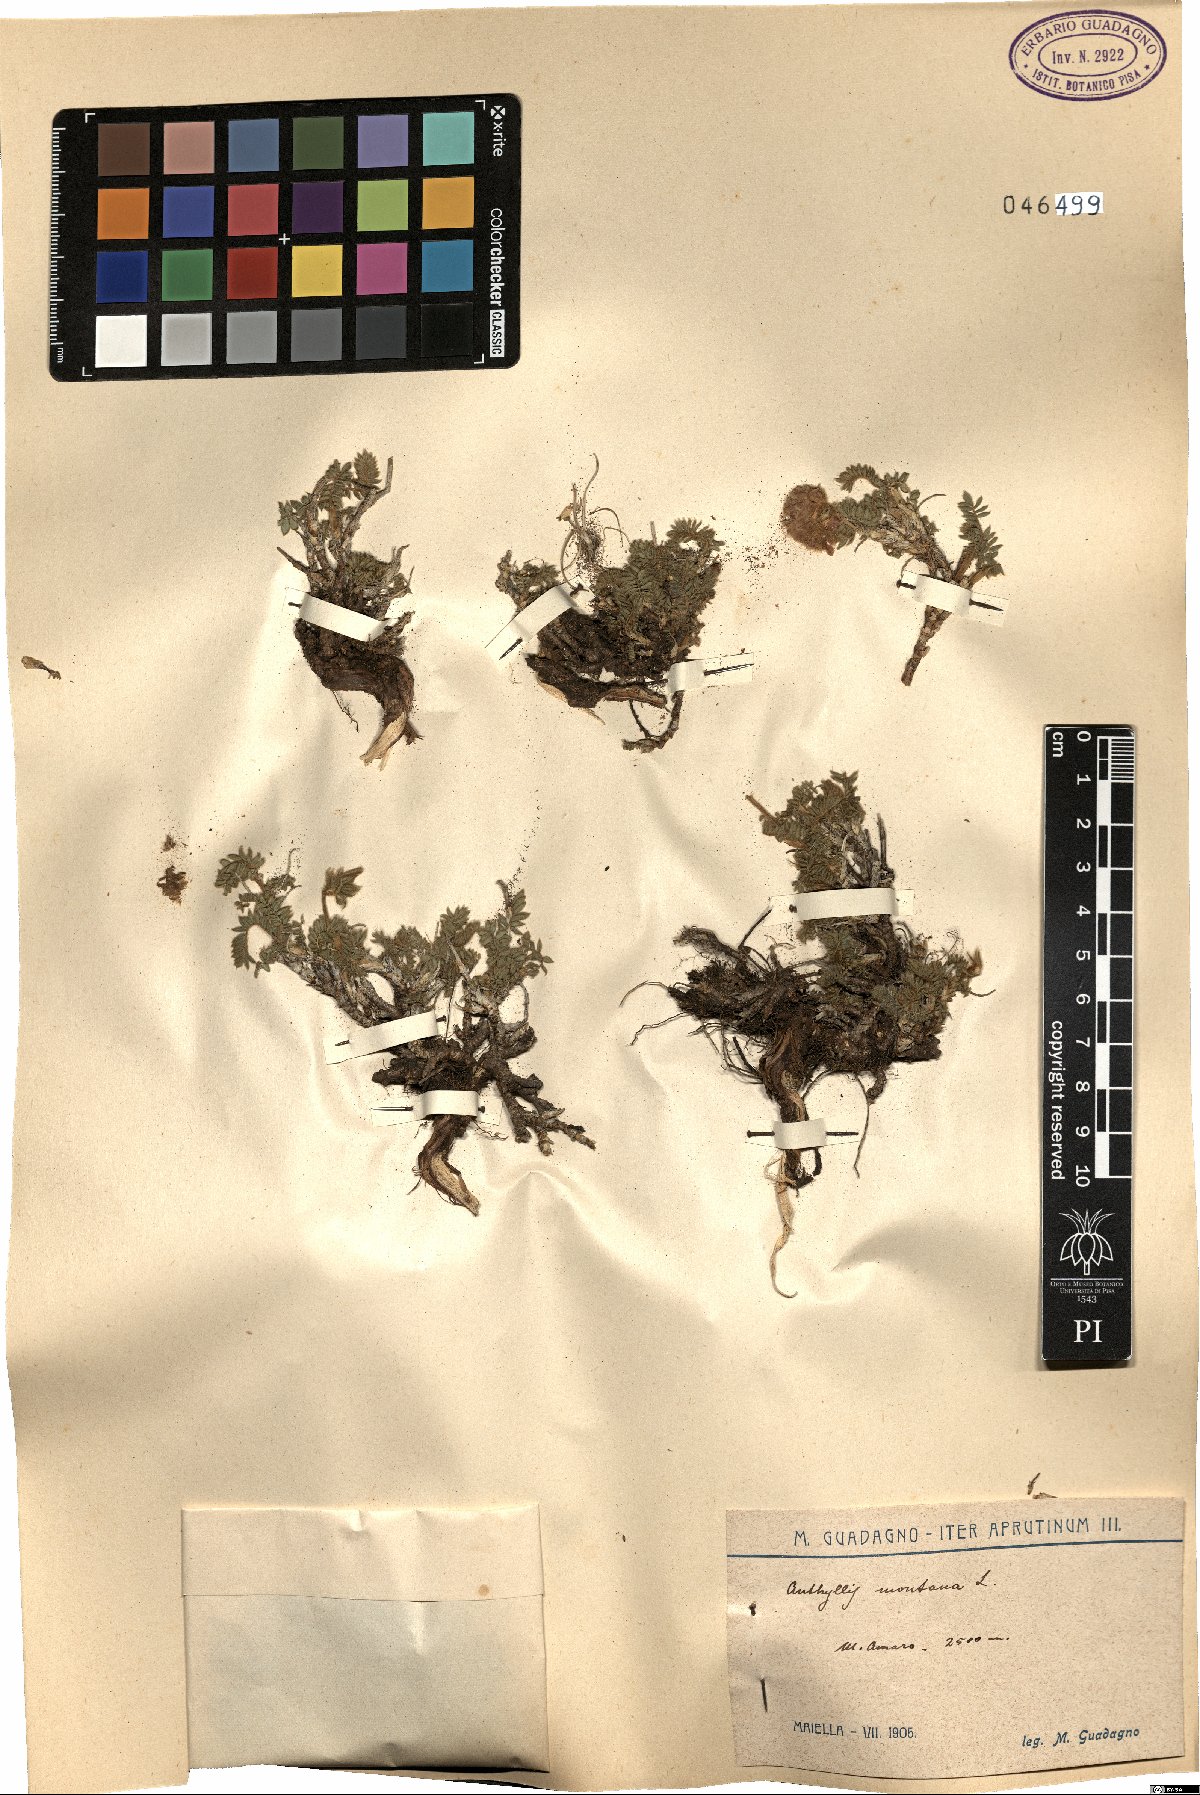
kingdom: Plantae
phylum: Tracheophyta
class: Magnoliopsida
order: Fabales
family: Fabaceae
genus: Anthyllis
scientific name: Anthyllis montana
